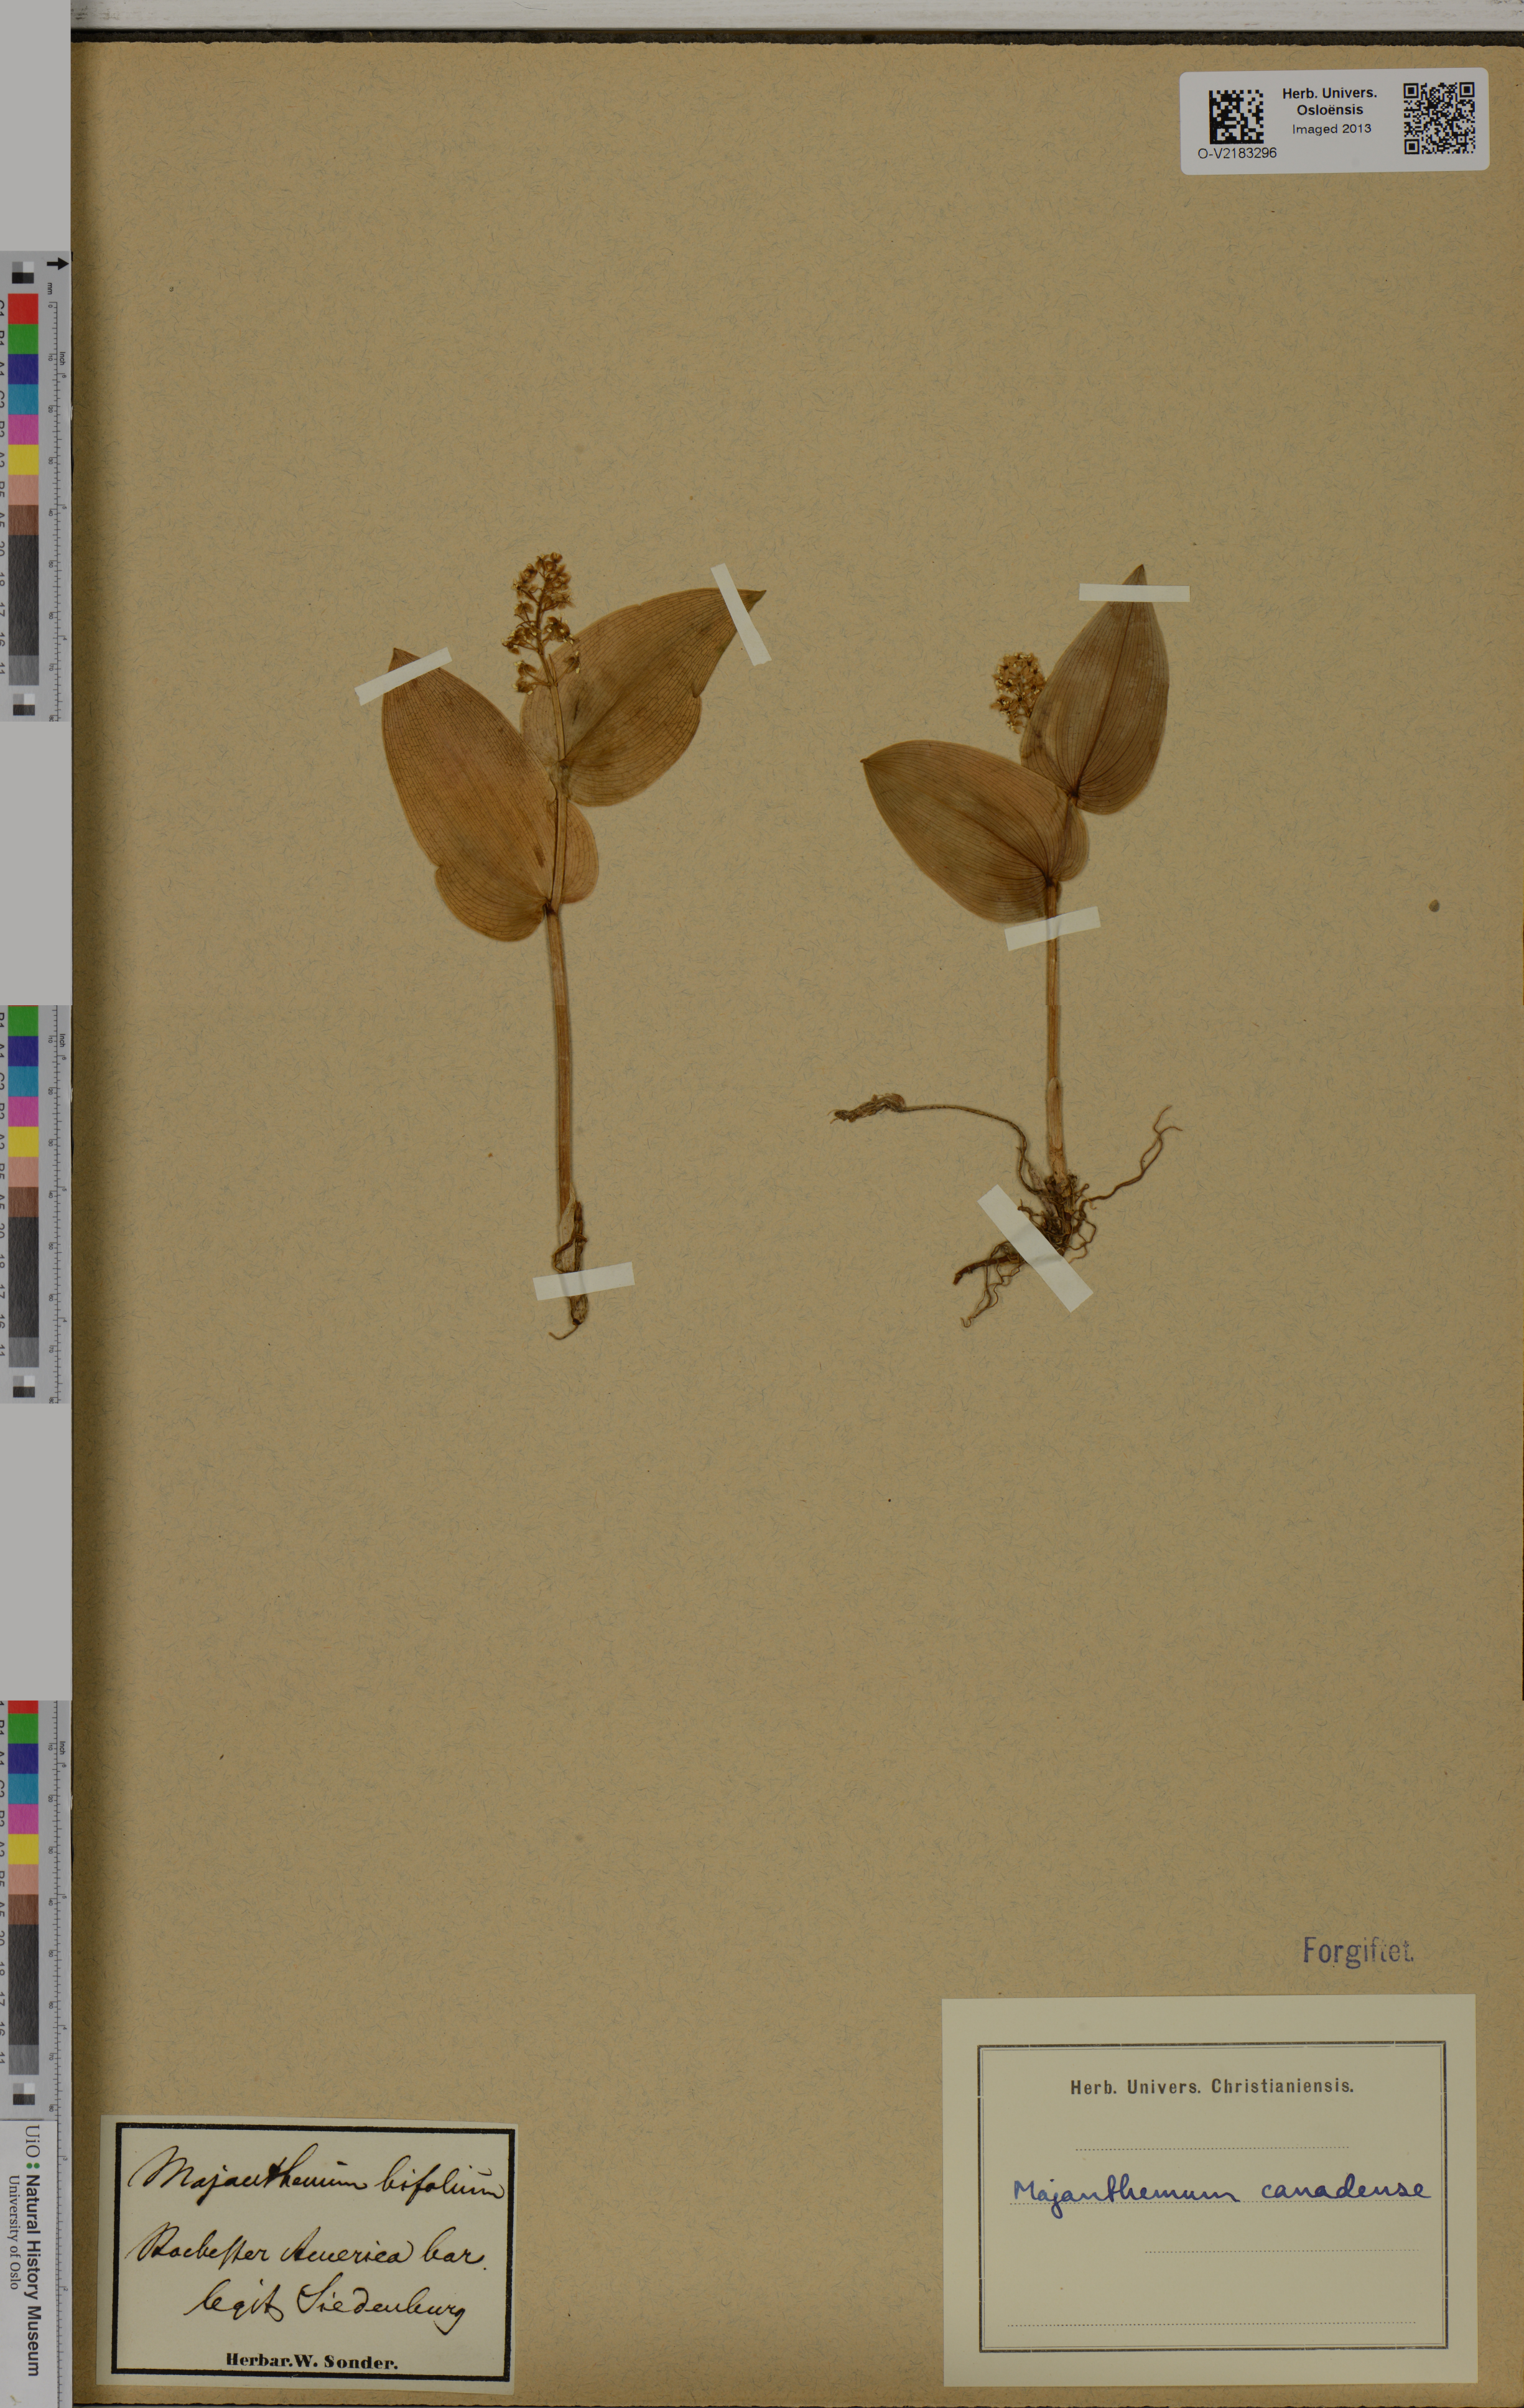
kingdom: Plantae
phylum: Tracheophyta
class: Liliopsida
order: Asparagales
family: Asparagaceae
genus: Maianthemum
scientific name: Maianthemum canadense
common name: False lily-of-the-valley
